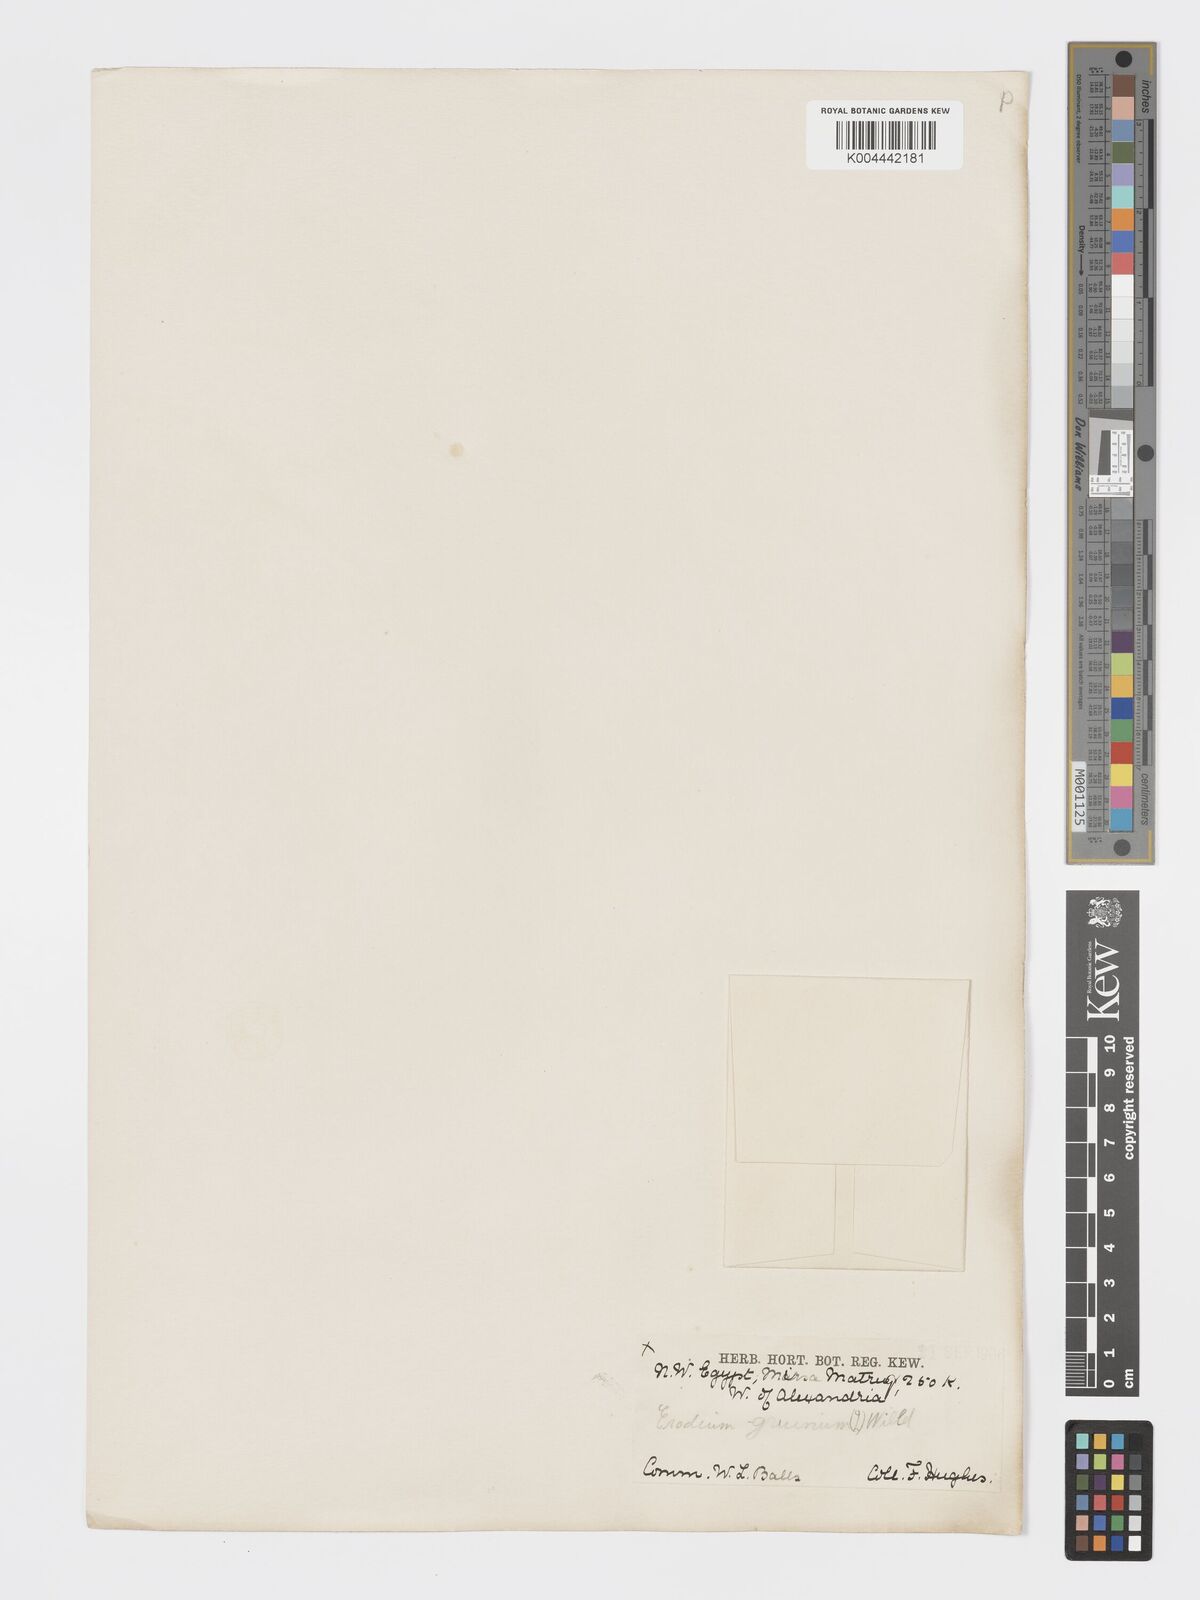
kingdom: Plantae
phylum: Tracheophyta
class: Magnoliopsida
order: Geraniales
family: Geraniaceae
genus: Erodium
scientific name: Erodium
